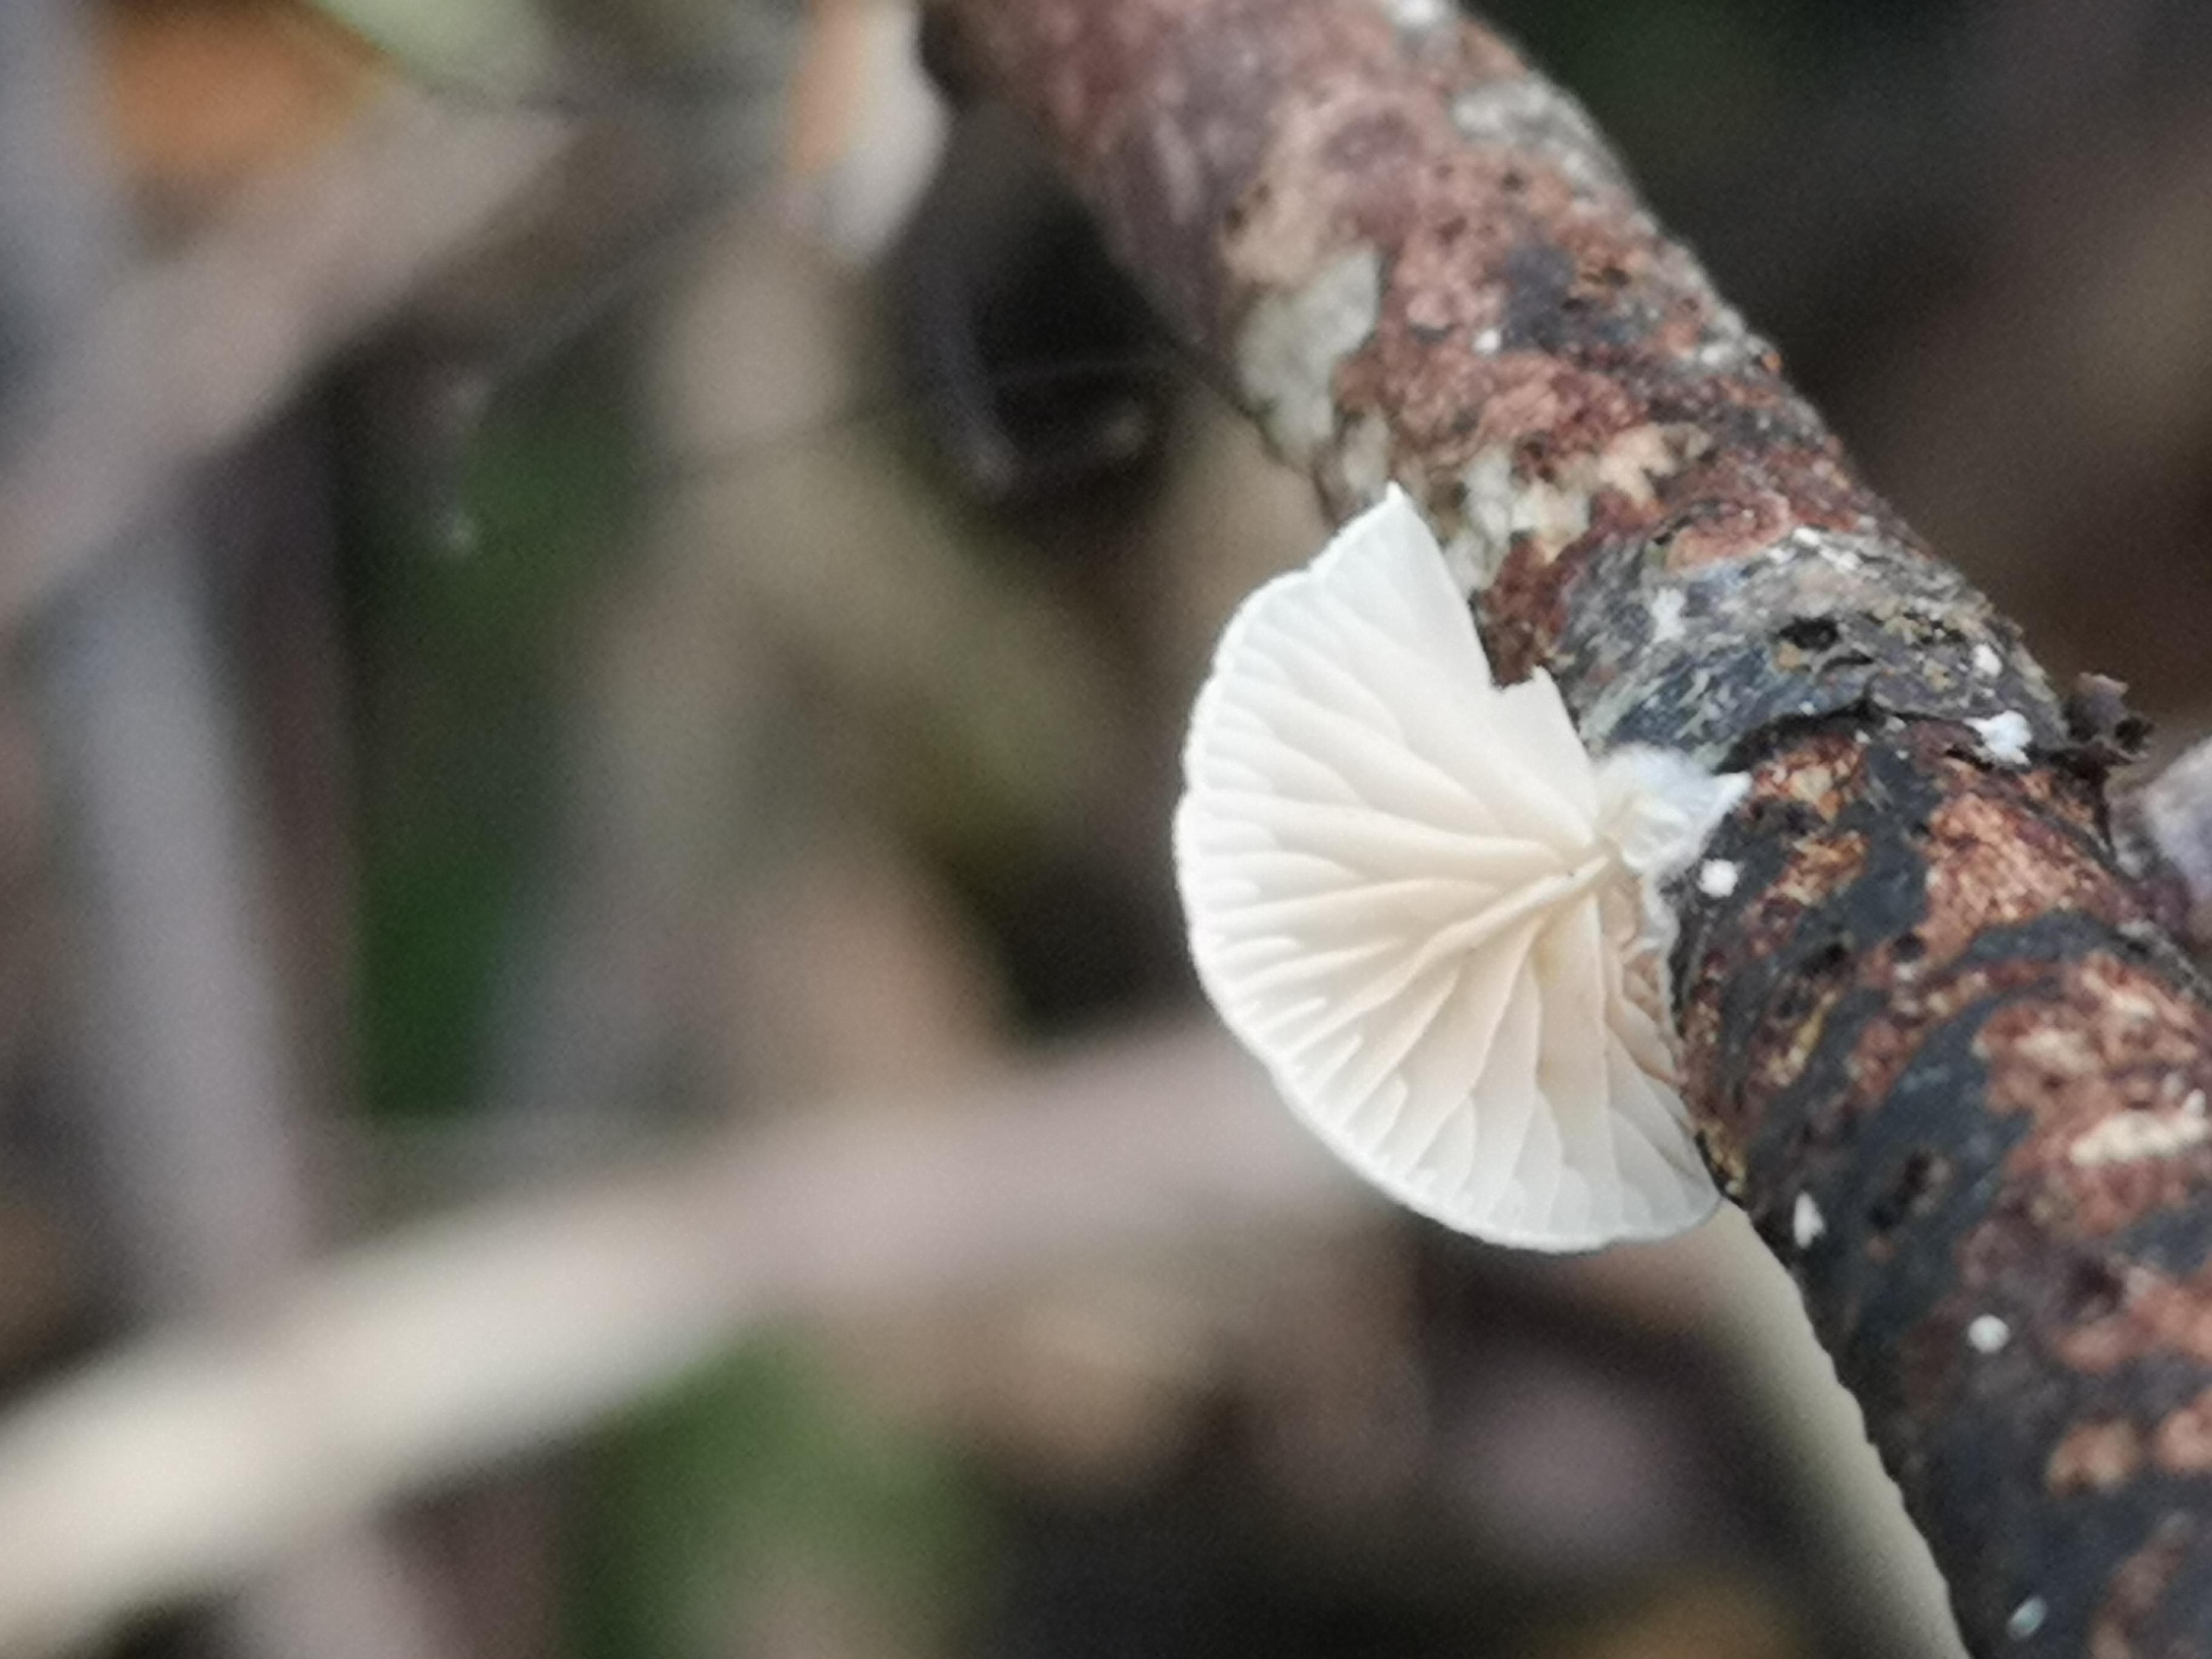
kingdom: Fungi
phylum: Basidiomycota
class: Agaricomycetes
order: Agaricales
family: Crepidotaceae
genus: Crepidotus
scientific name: Crepidotus
